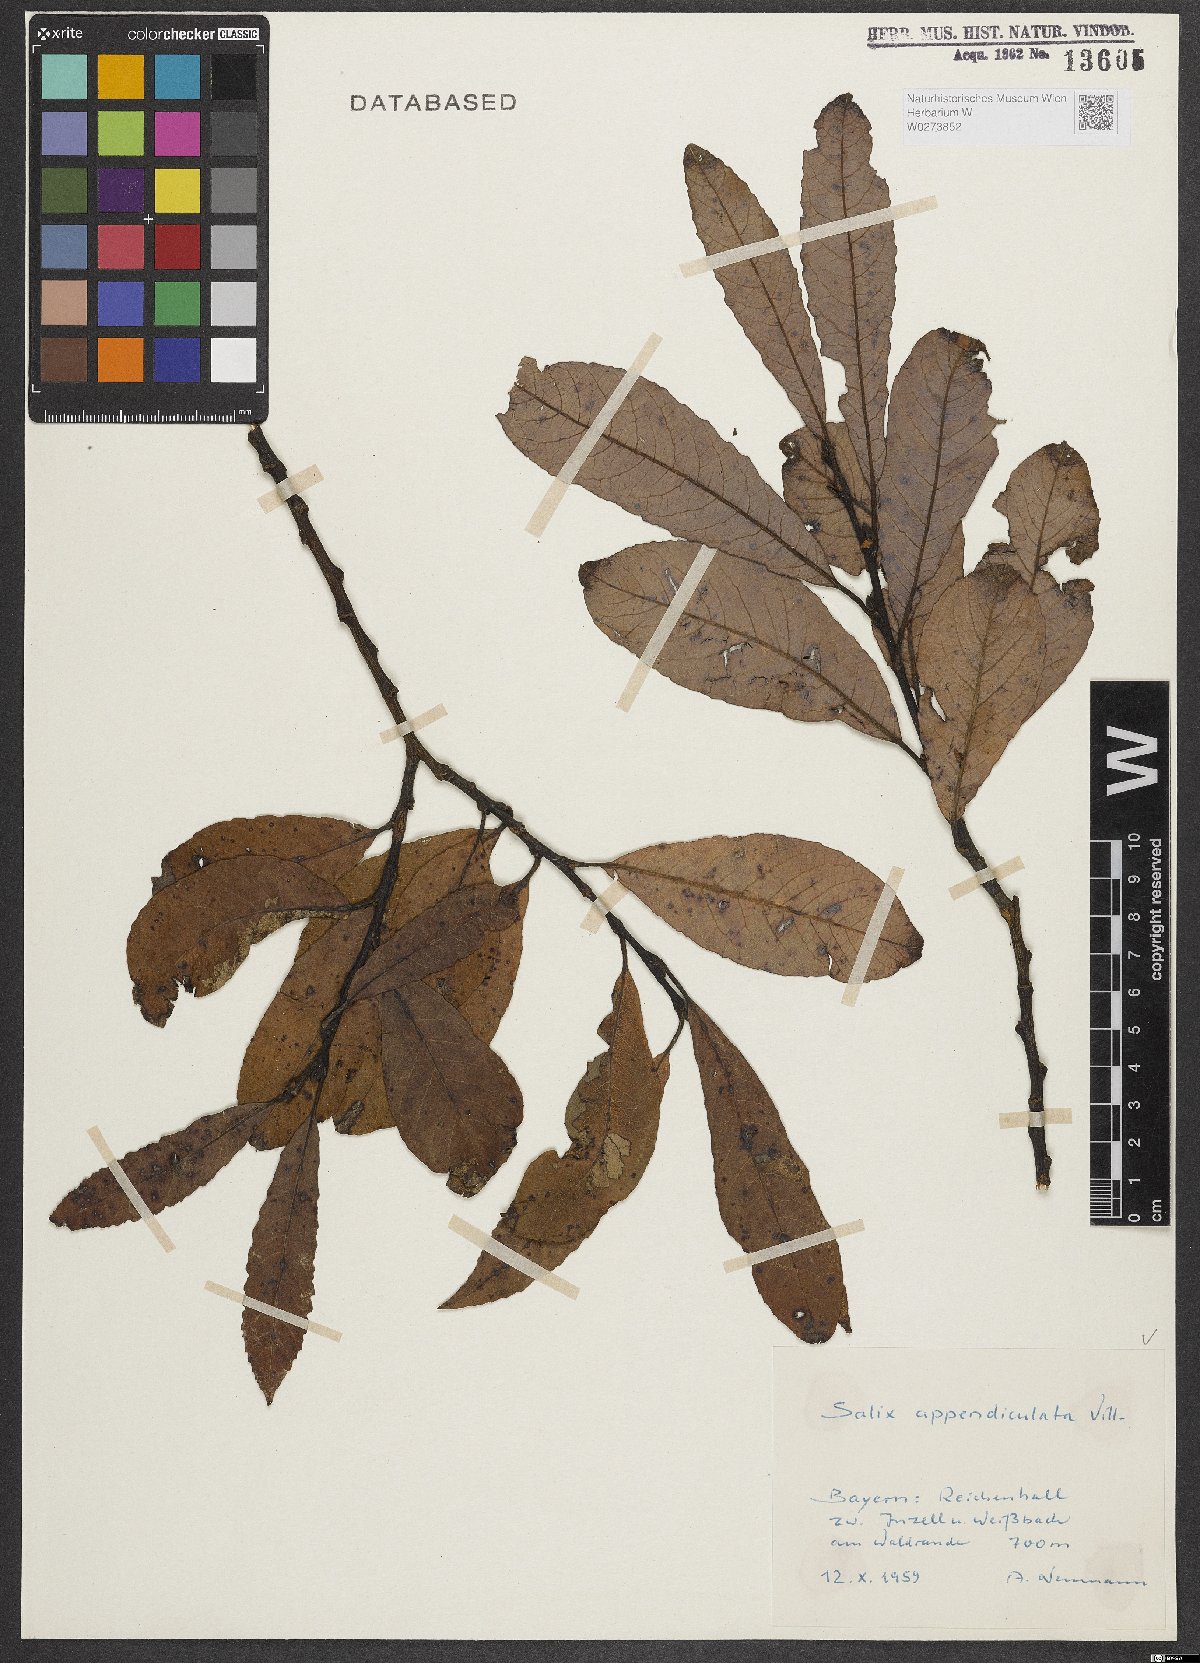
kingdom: Plantae
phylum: Tracheophyta
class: Magnoliopsida
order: Malpighiales
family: Salicaceae
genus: Salix
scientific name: Salix appendiculata
